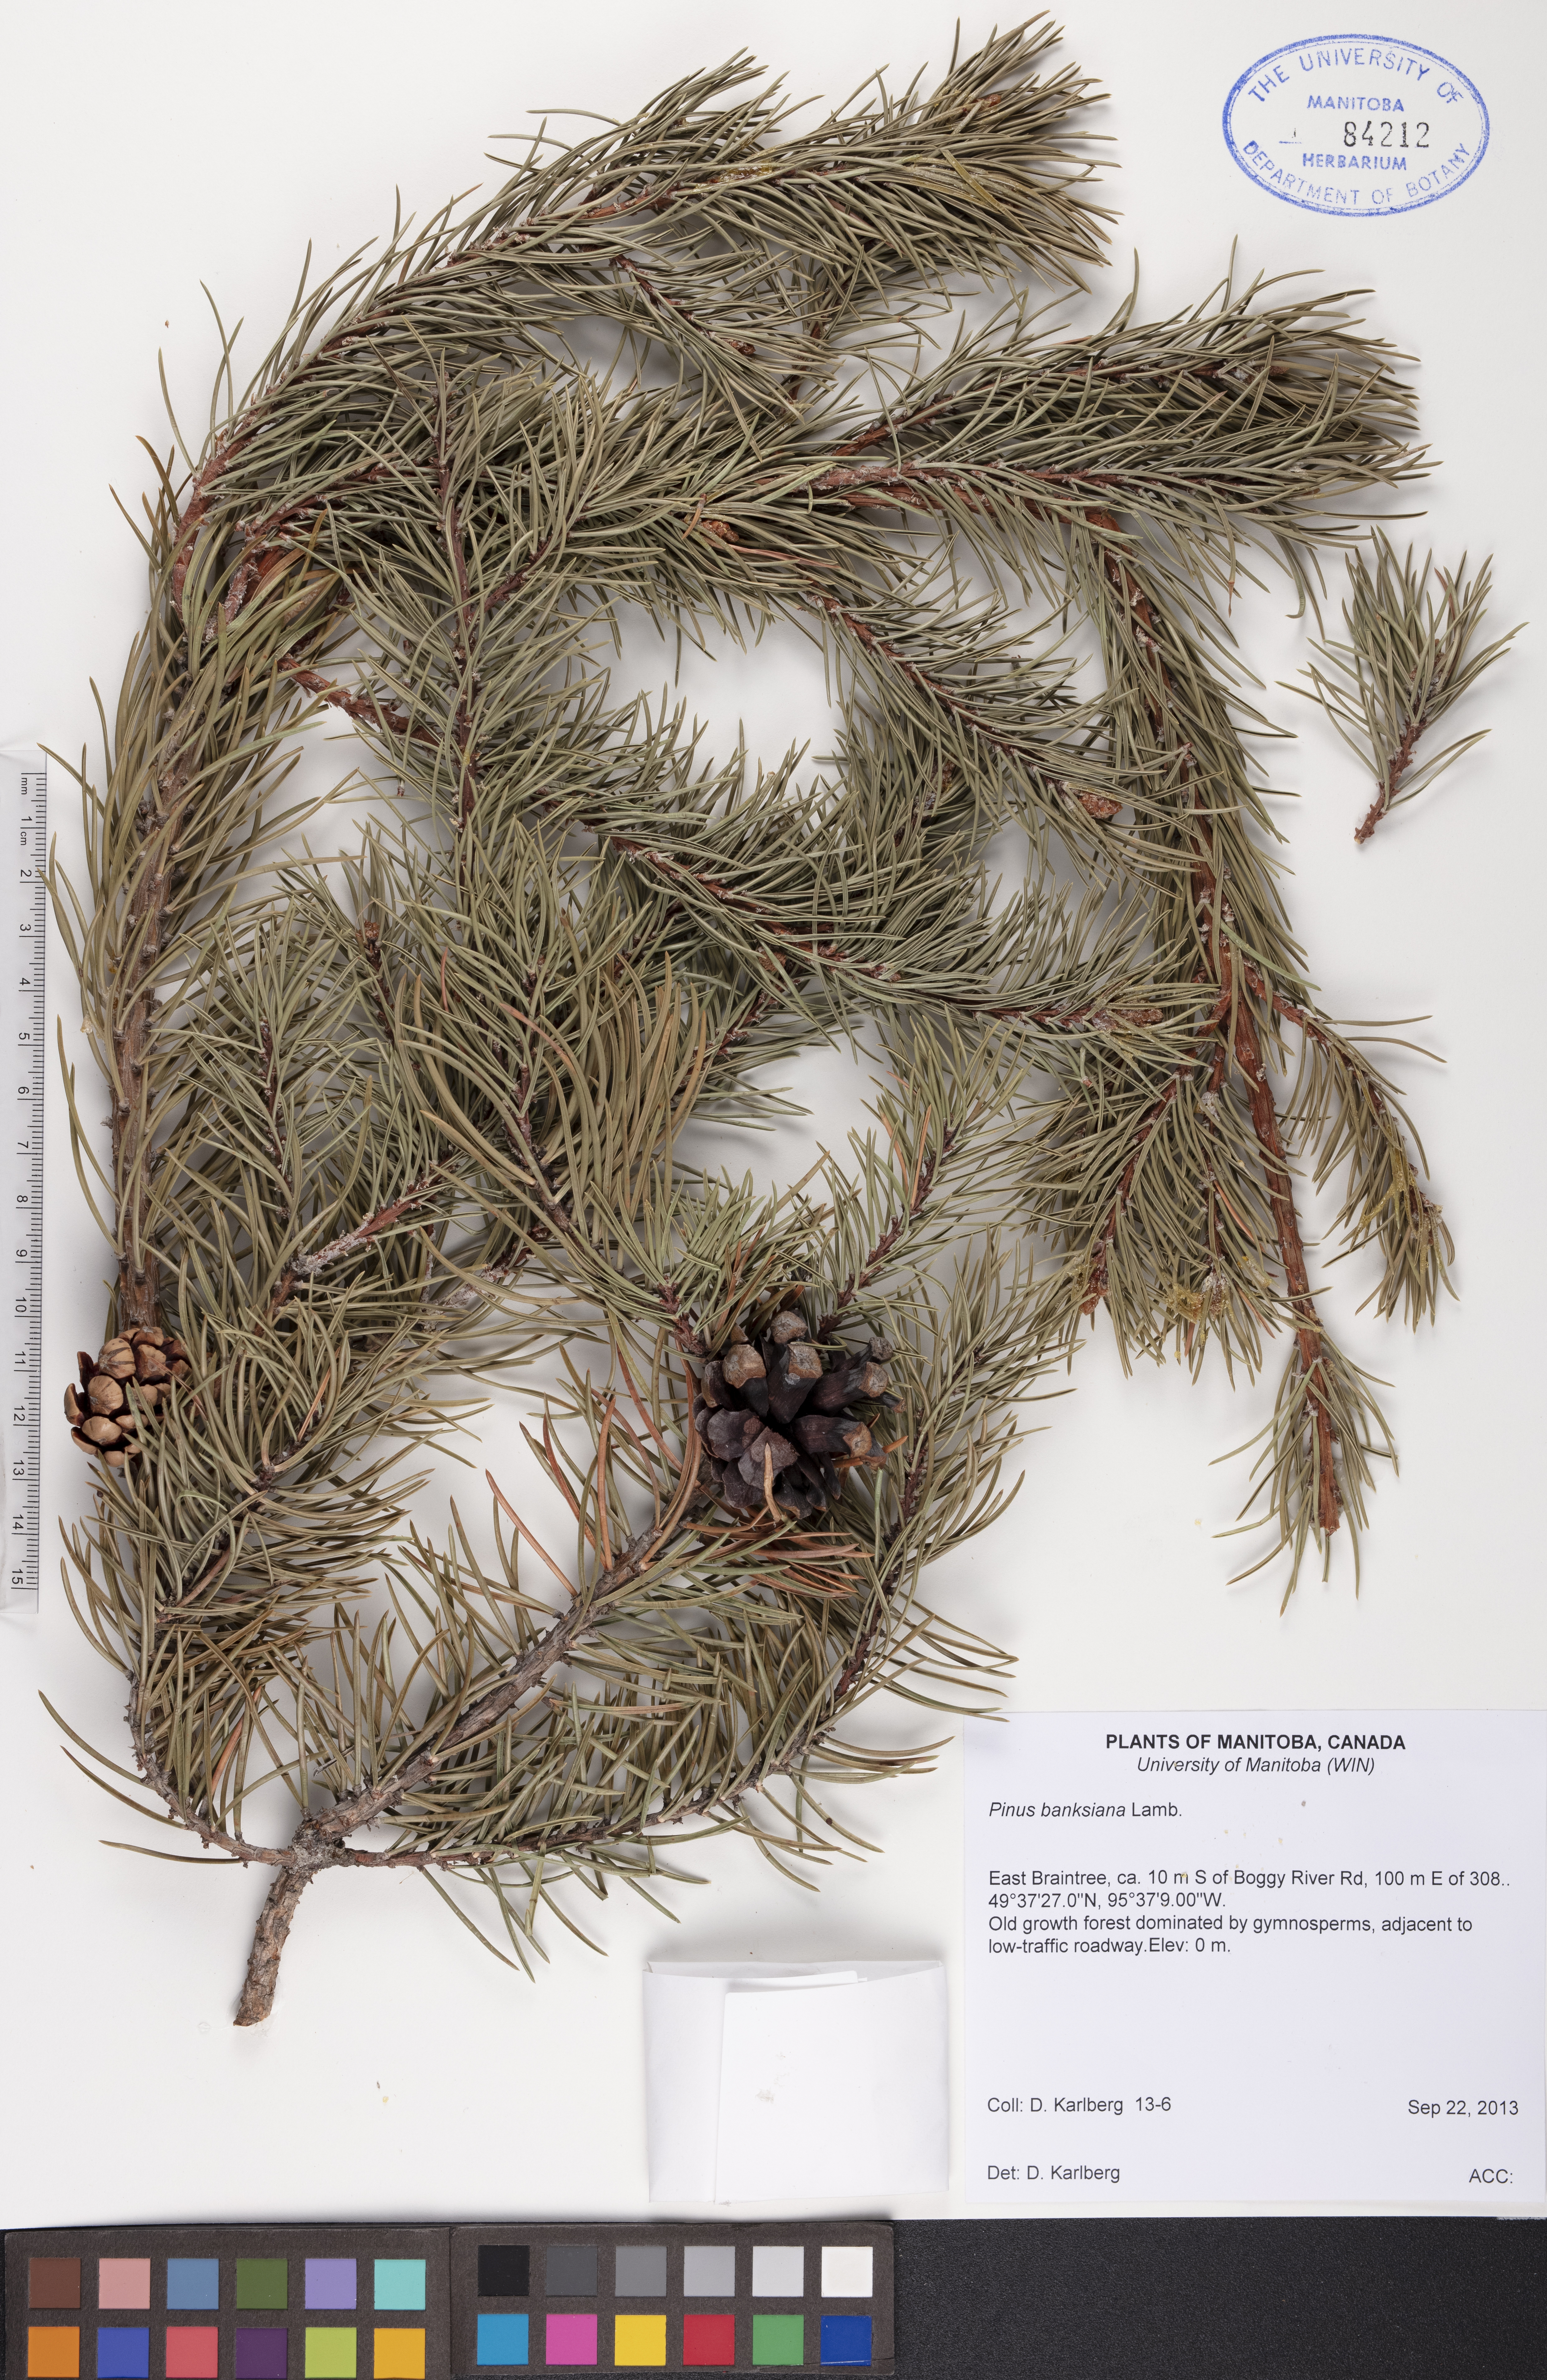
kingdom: Plantae
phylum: Tracheophyta
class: Pinopsida
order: Pinales
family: Pinaceae
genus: Pinus
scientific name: Pinus banksiana
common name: Jack pine
